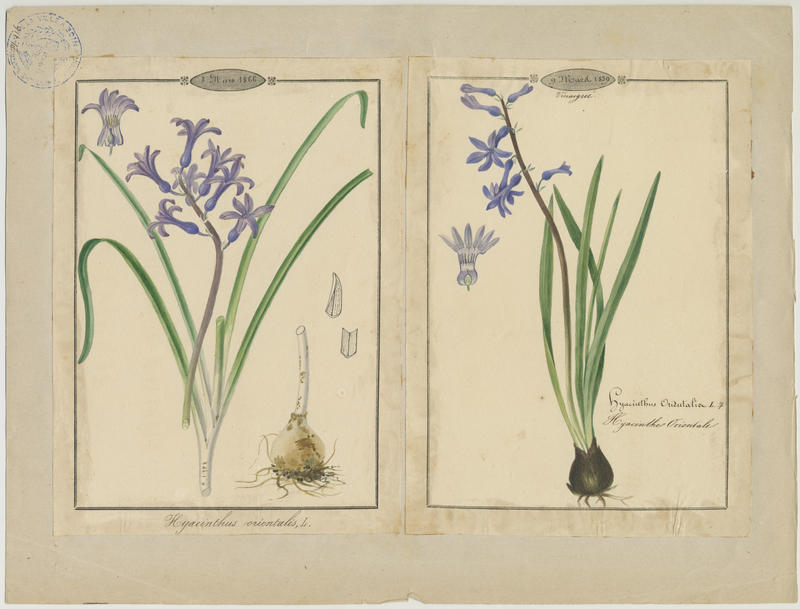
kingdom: Plantae
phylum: Tracheophyta
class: Liliopsida
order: Asparagales
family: Asparagaceae
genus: Hyacinthus
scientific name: Hyacinthus orientalis
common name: Hyacinth
